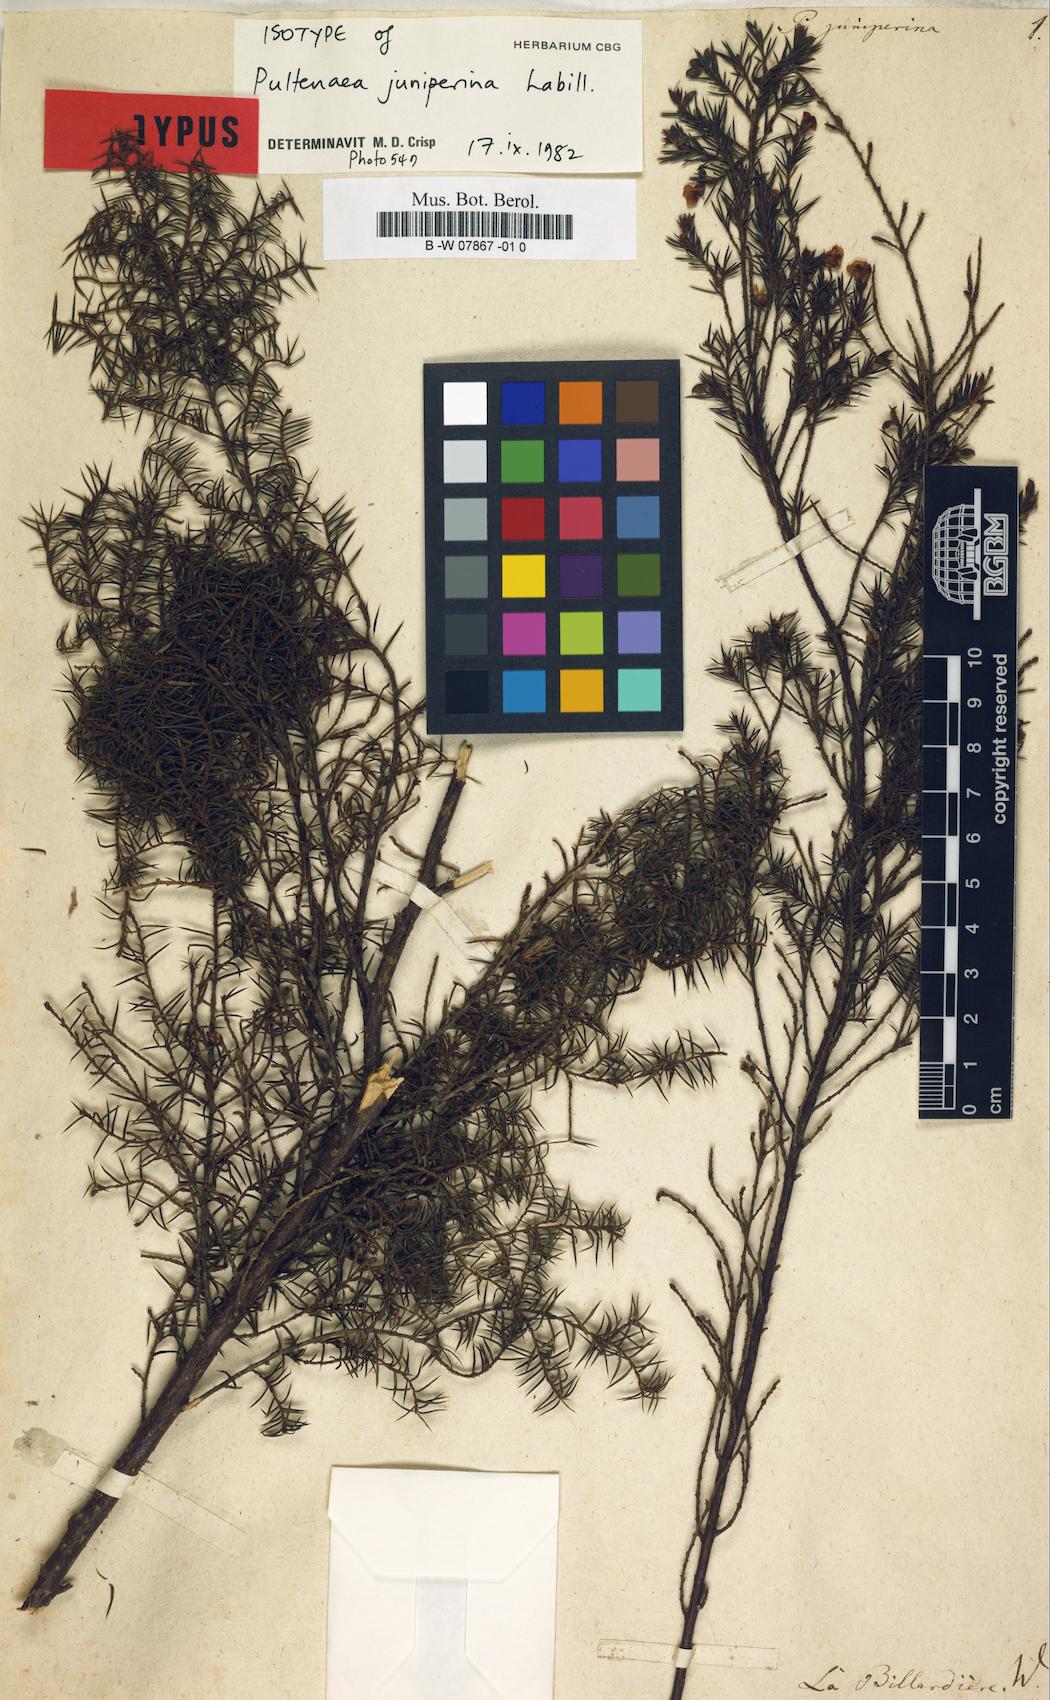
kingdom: Plantae
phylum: Tracheophyta
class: Magnoliopsida
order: Fabales
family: Fabaceae
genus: Pultenaea
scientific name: Pultenaea juniperina
